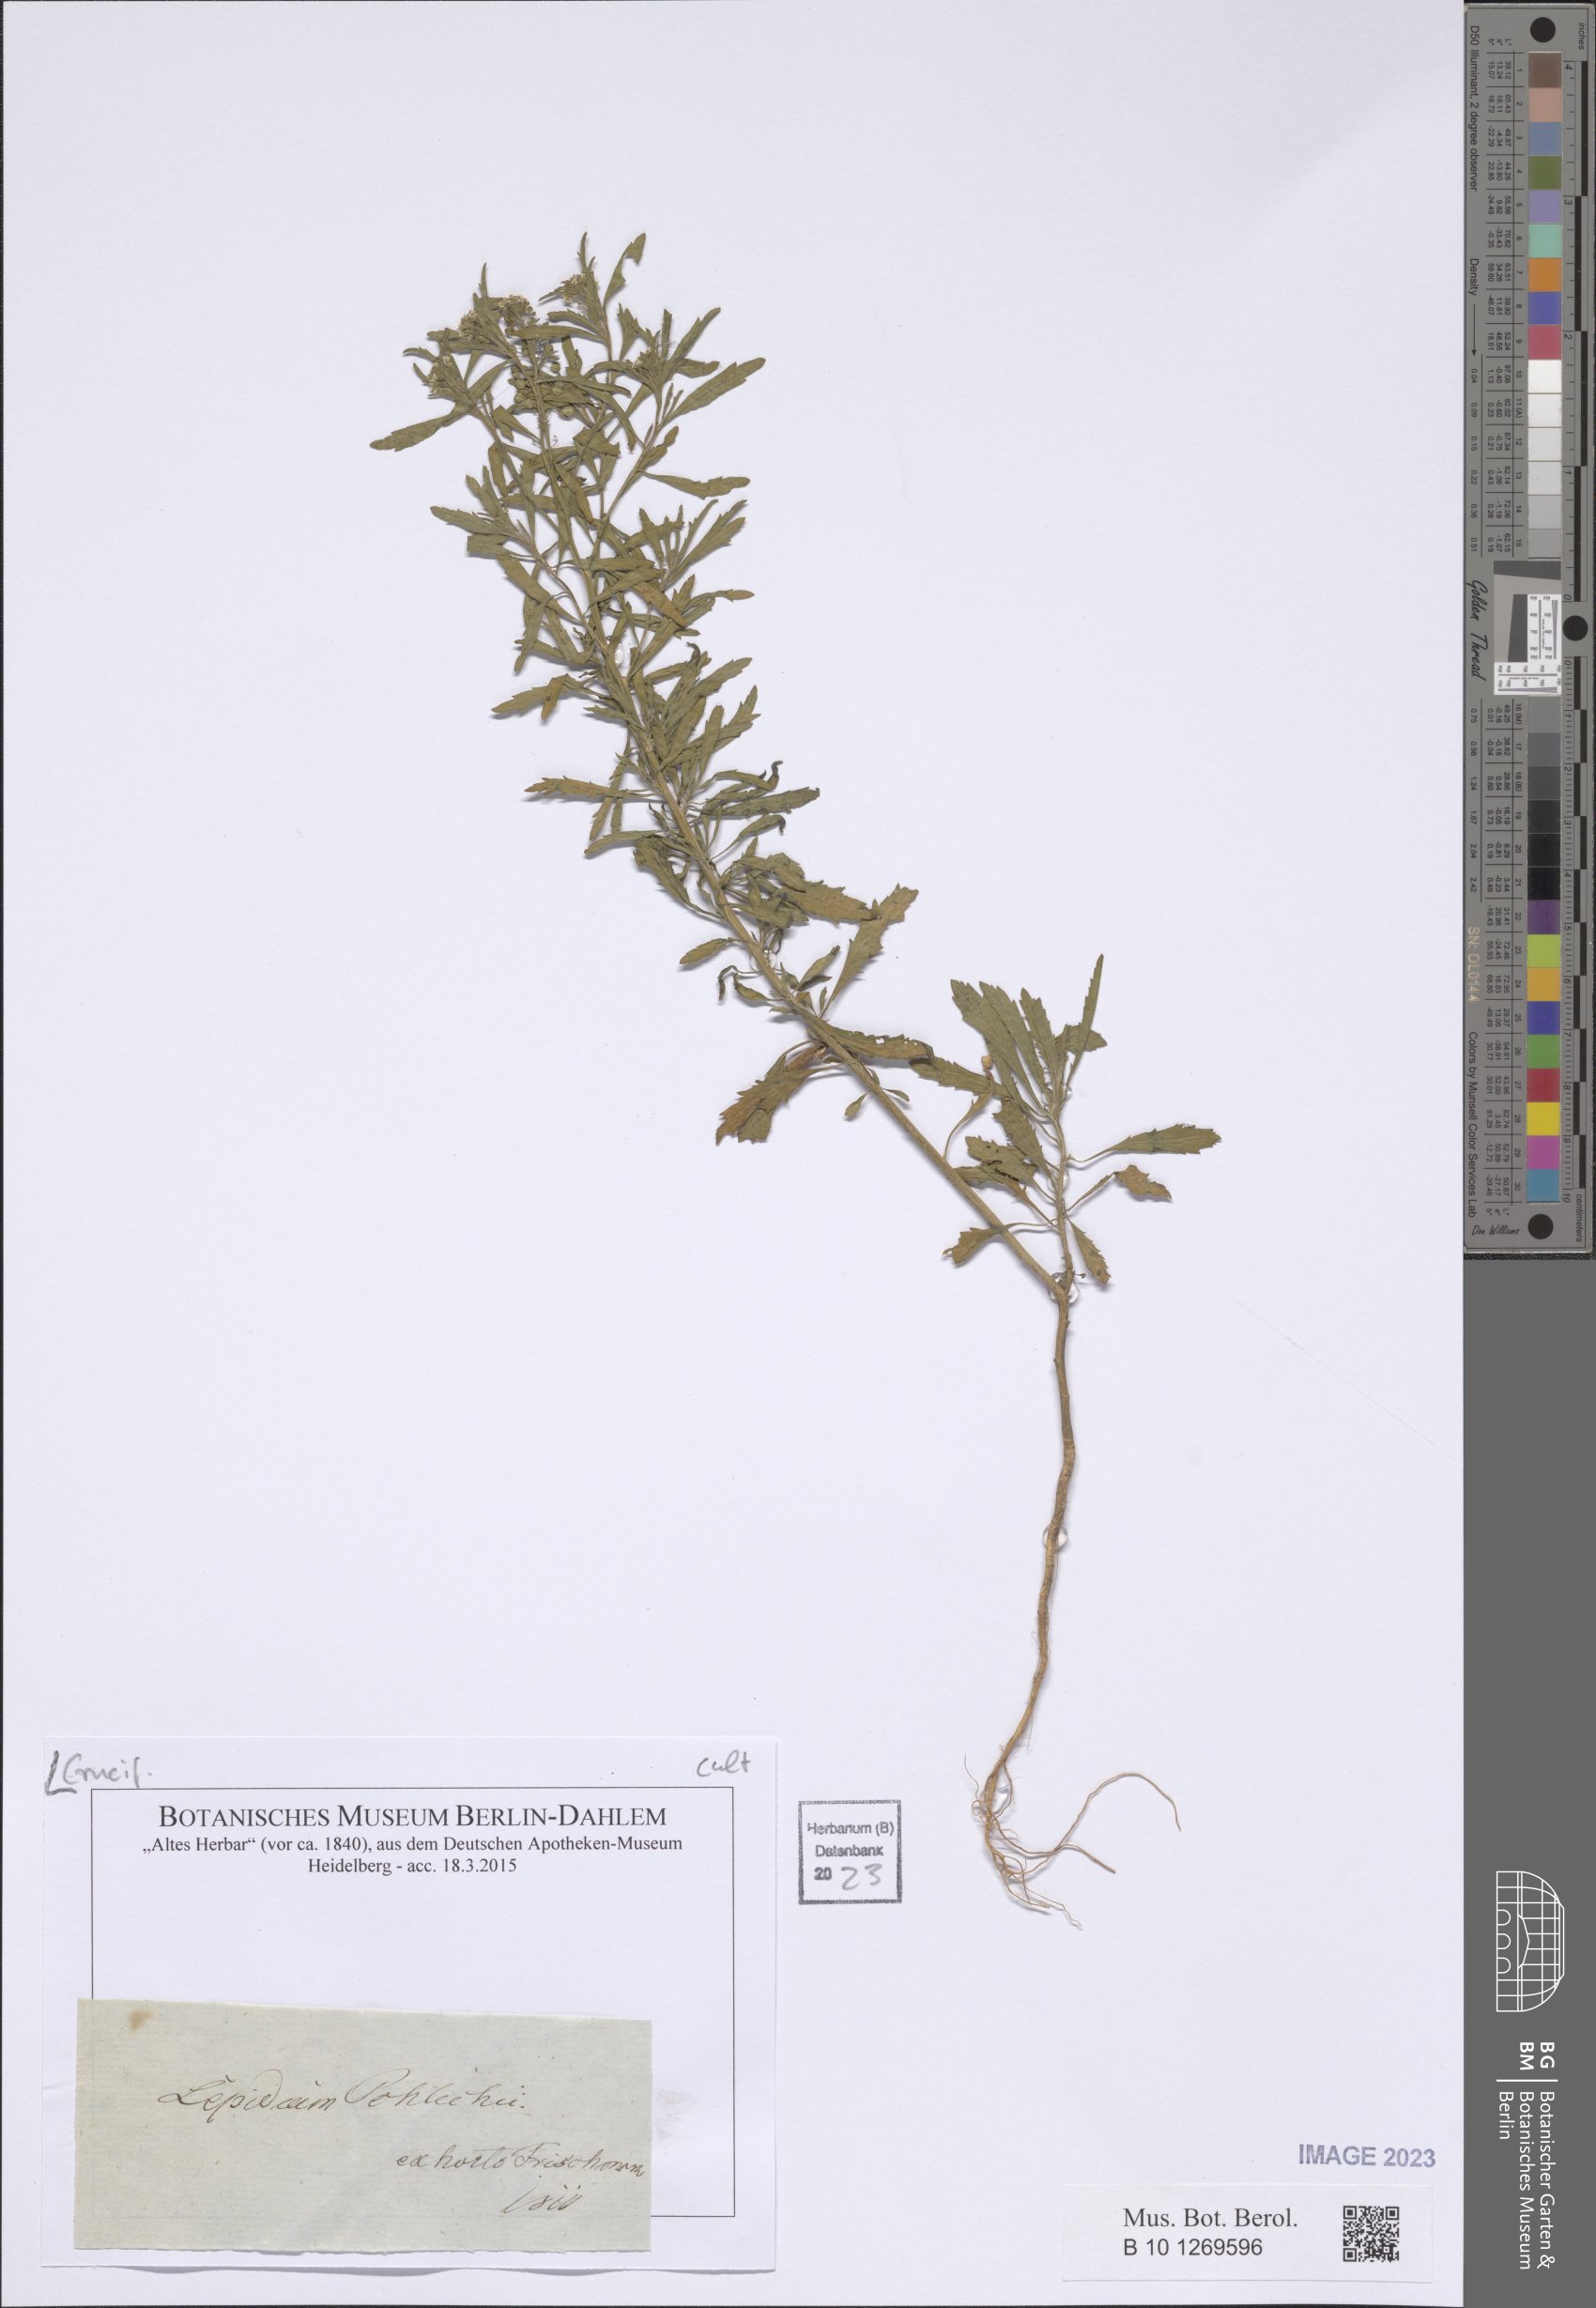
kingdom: Plantae
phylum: Tracheophyta
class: Magnoliopsida
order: Brassicales
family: Brassicaceae
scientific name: Brassicaceae
